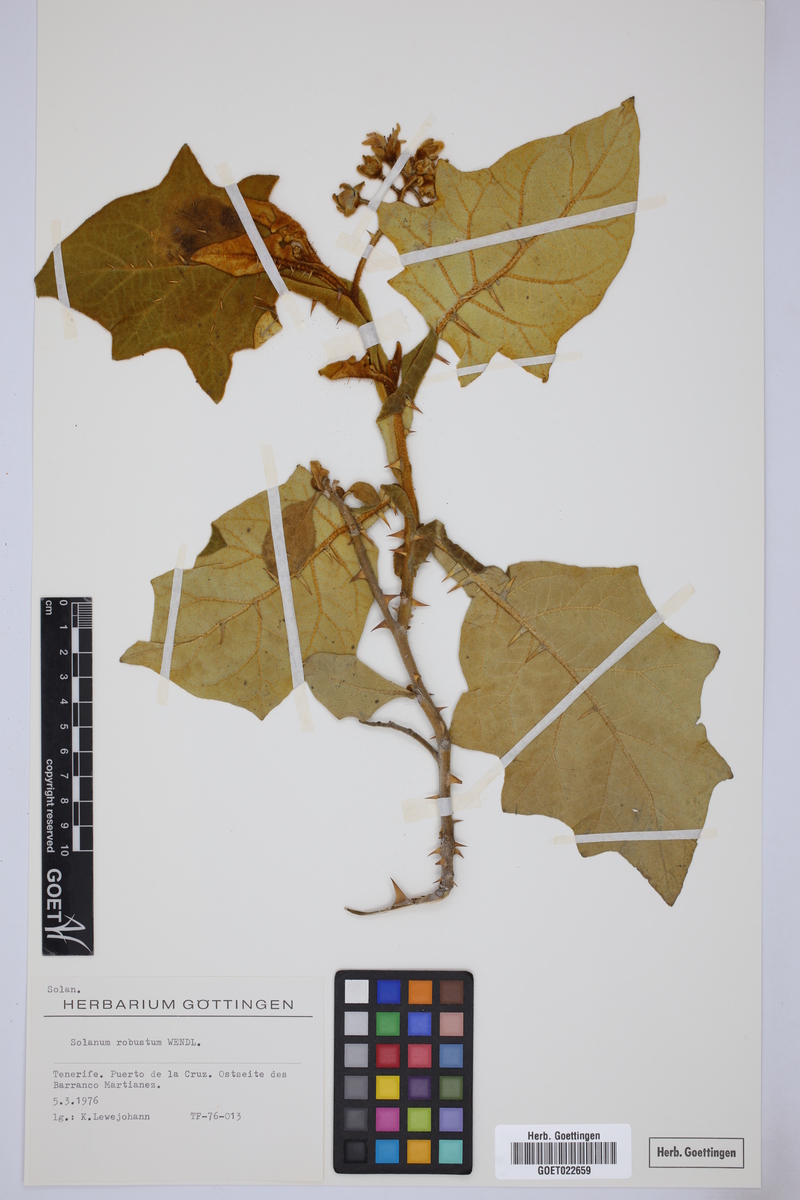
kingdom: Plantae
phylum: Tracheophyta
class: Magnoliopsida
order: Solanales
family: Solanaceae
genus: Solanum
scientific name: Solanum robustum
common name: Shrubby nightshade
